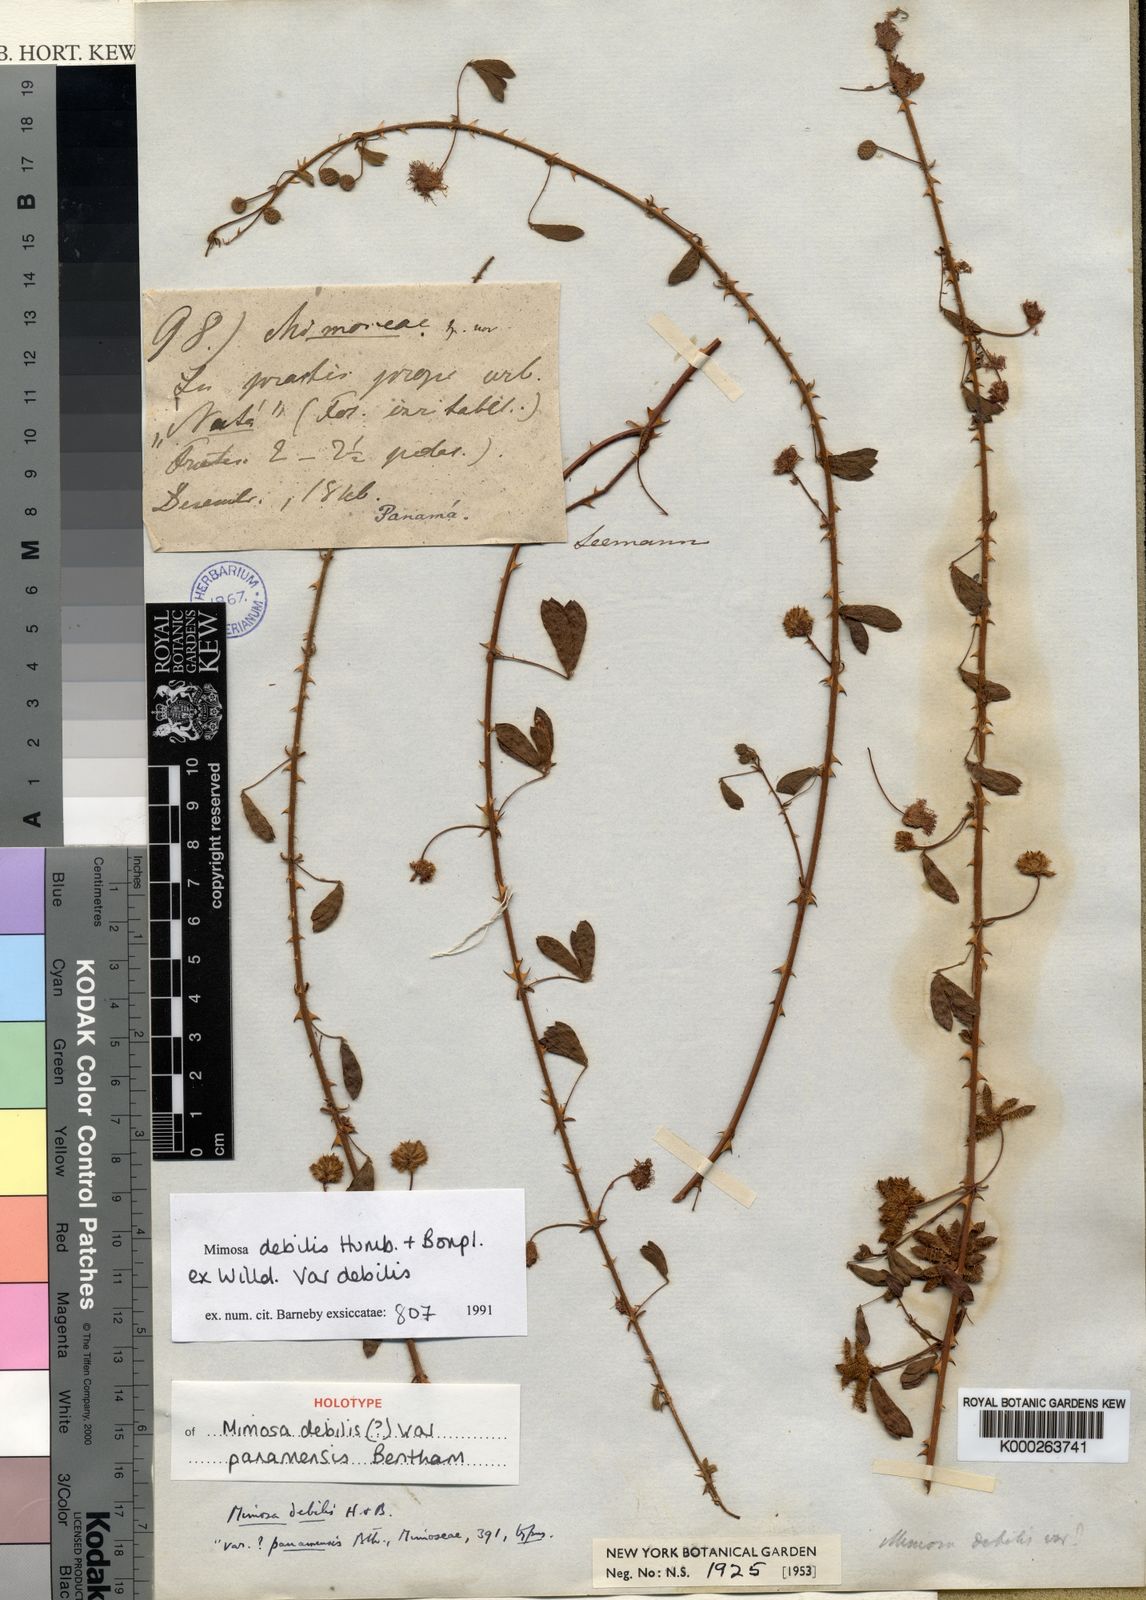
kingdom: Plantae
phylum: Tracheophyta
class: Magnoliopsida
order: Fabales
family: Fabaceae
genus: Mimosa
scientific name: Mimosa debilis
